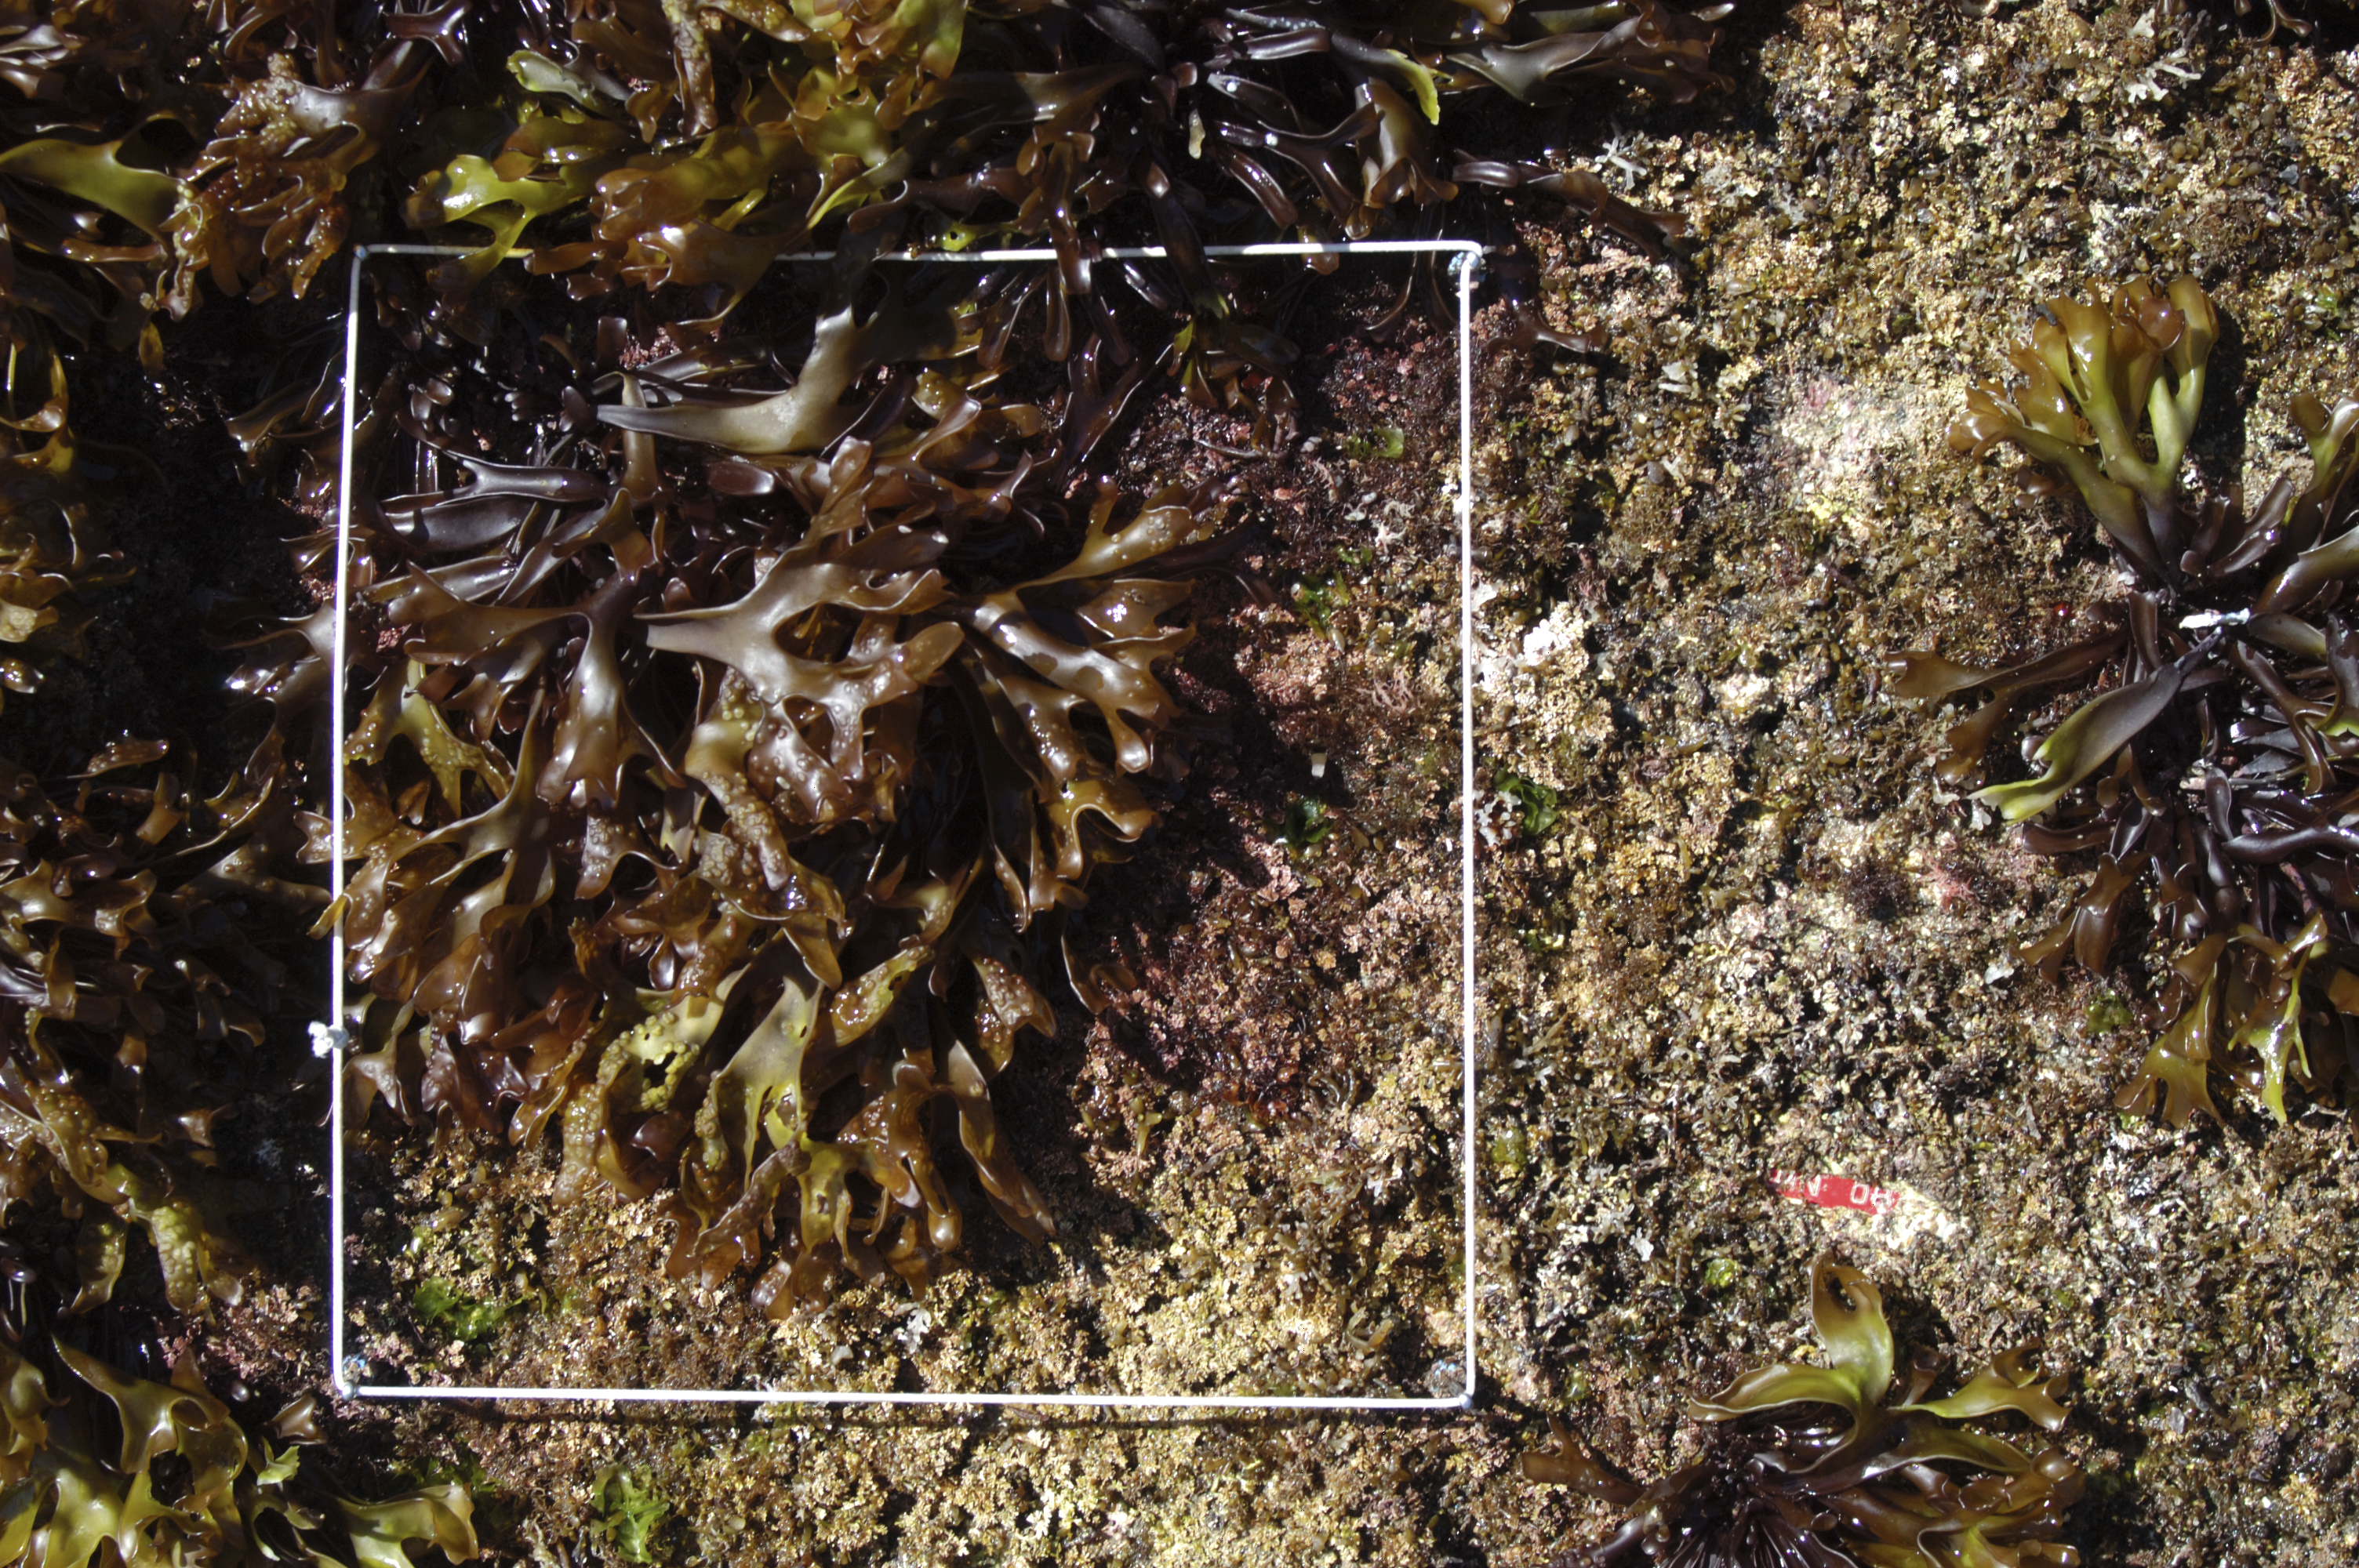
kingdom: Chromista
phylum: Ochrophyta
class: Phaeophyceae
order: Fucales
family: Sargassaceae
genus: Sargassum
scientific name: Sargassum fusiforme
